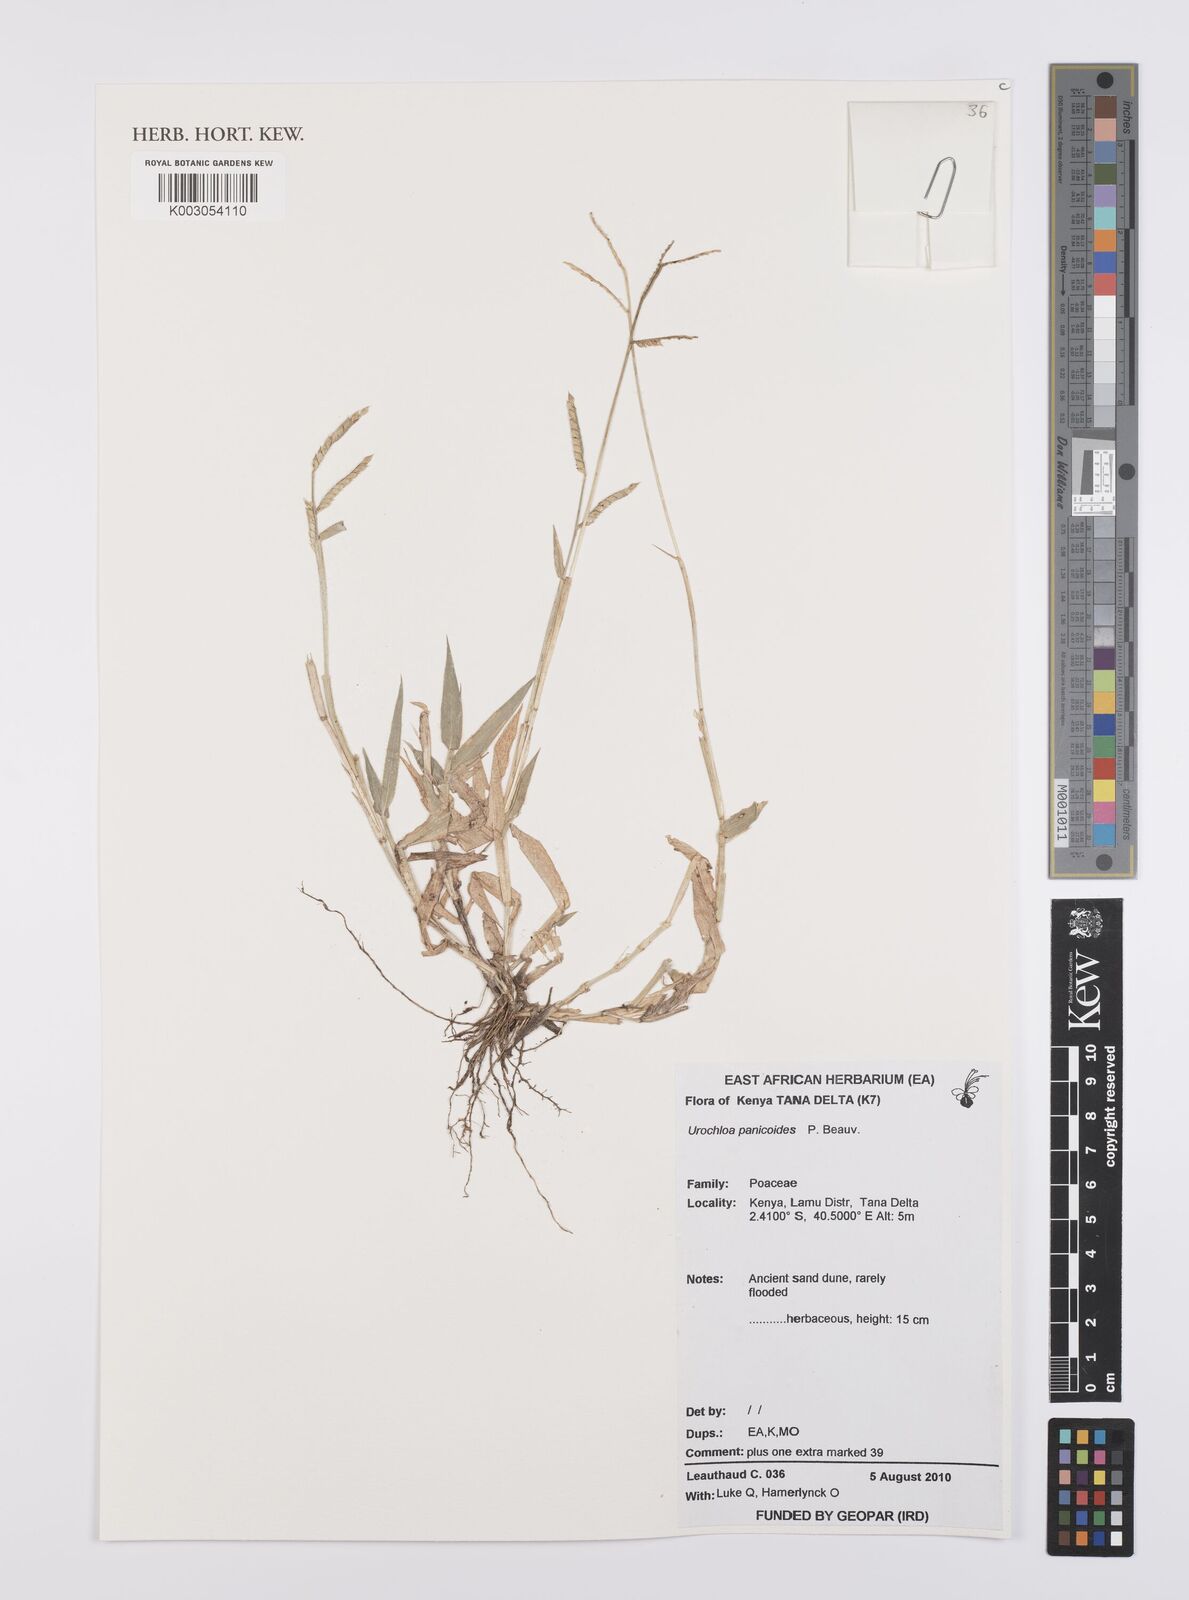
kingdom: Plantae
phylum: Tracheophyta
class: Liliopsida
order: Poales
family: Poaceae
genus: Urochloa
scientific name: Urochloa panicoides
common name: Sharp-flowered signal-grass
